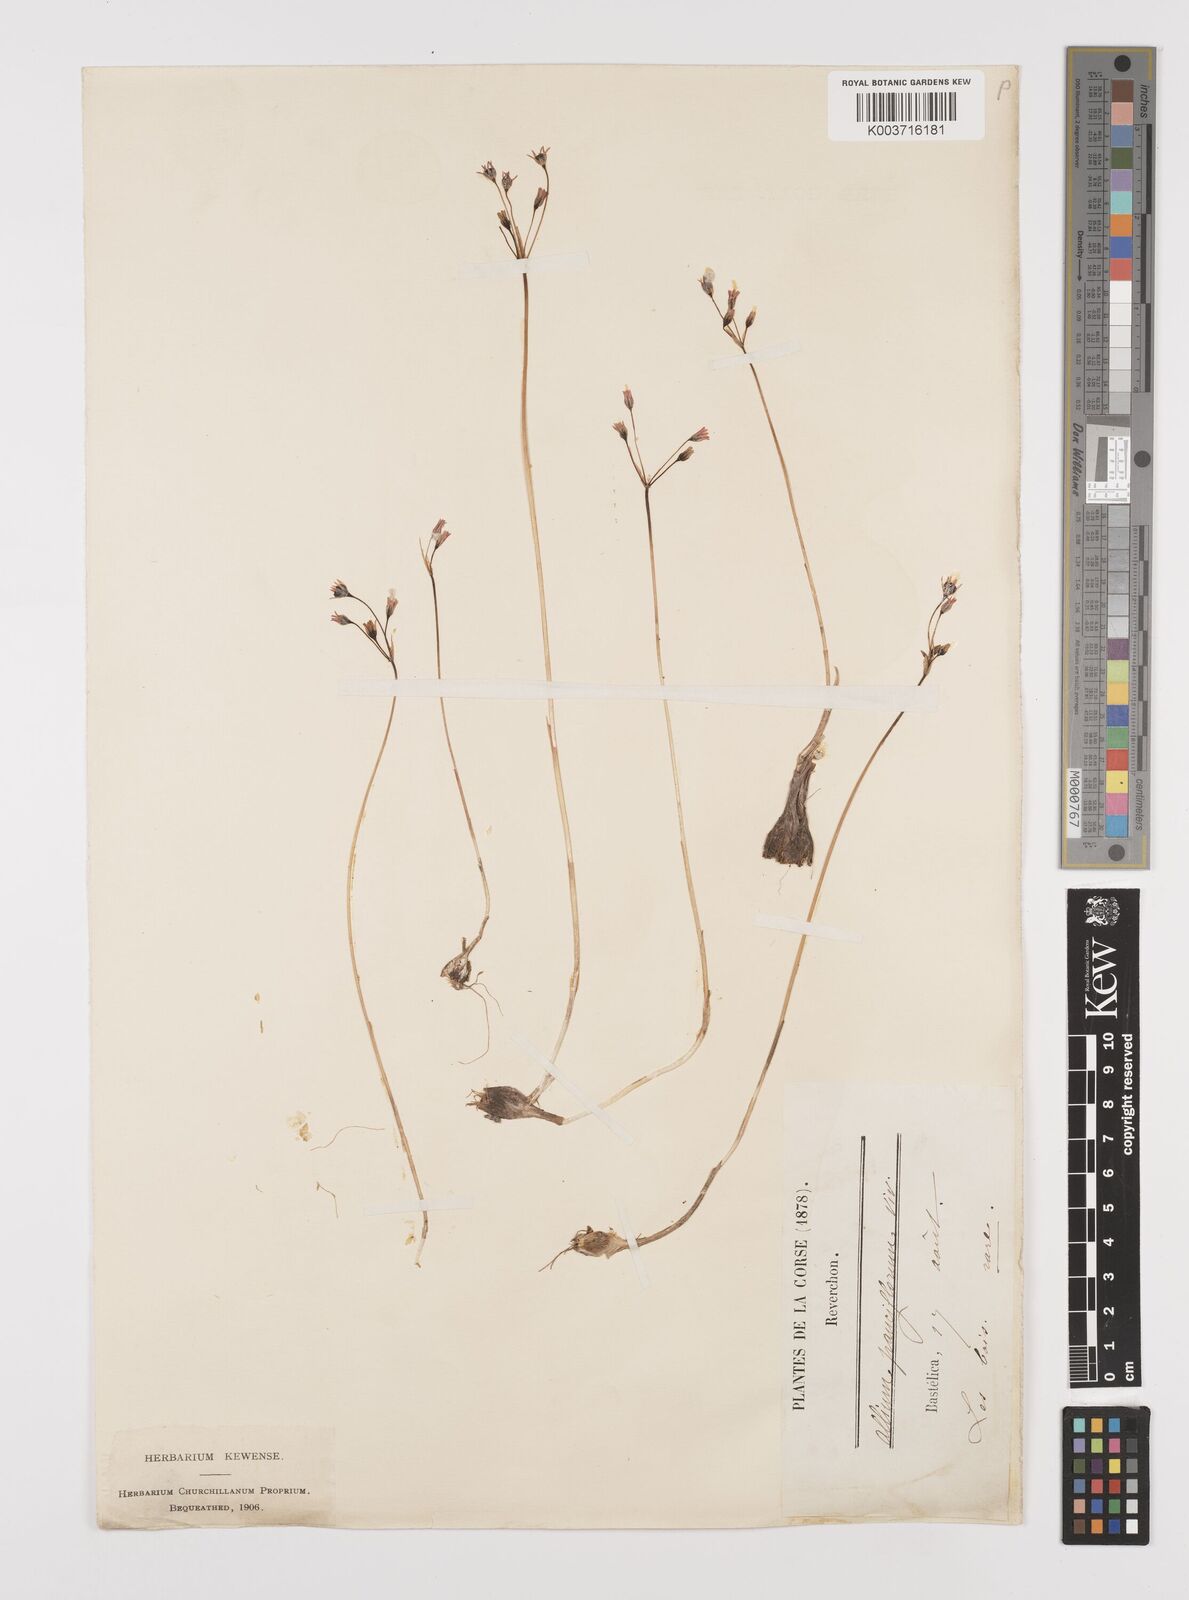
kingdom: Plantae
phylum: Tracheophyta
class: Liliopsida
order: Asparagales
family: Amaryllidaceae
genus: Allium
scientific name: Allium parciflorum
